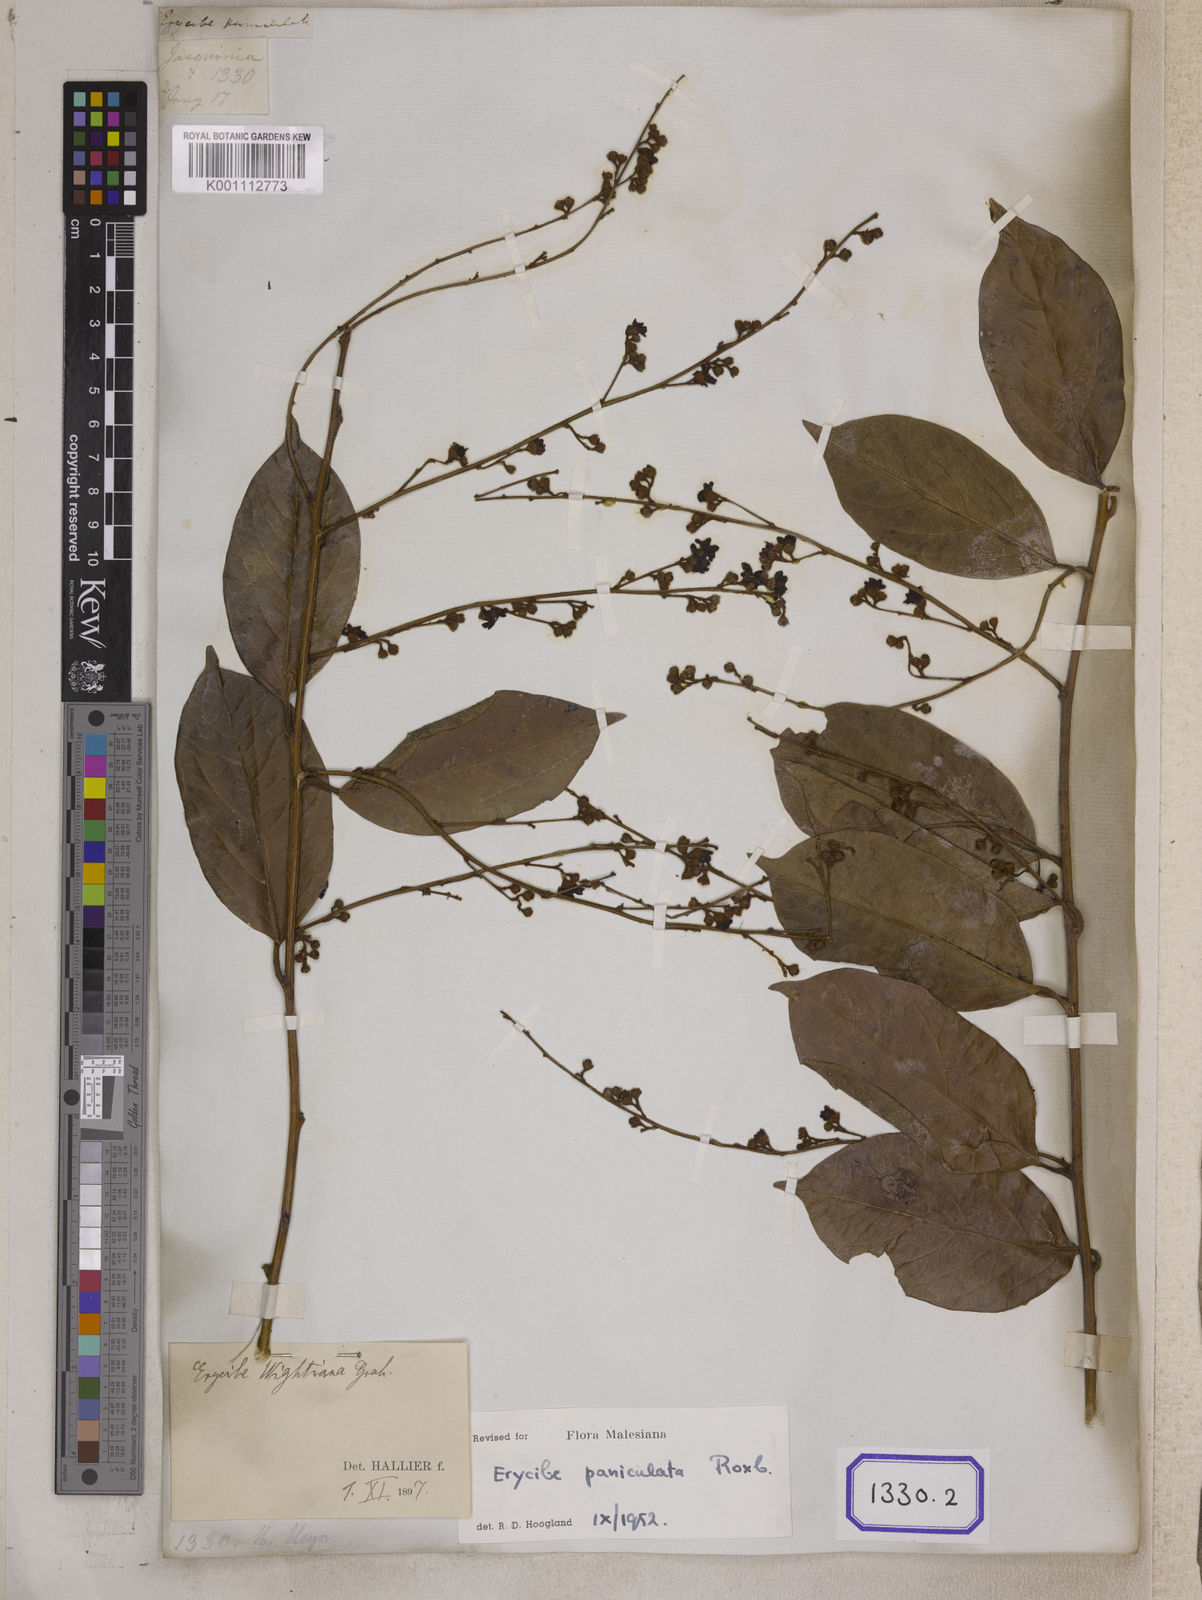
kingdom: Plantae
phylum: Tracheophyta
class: Magnoliopsida
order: Solanales
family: Convolvulaceae
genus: Erycibe
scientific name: Erycibe paniculata
